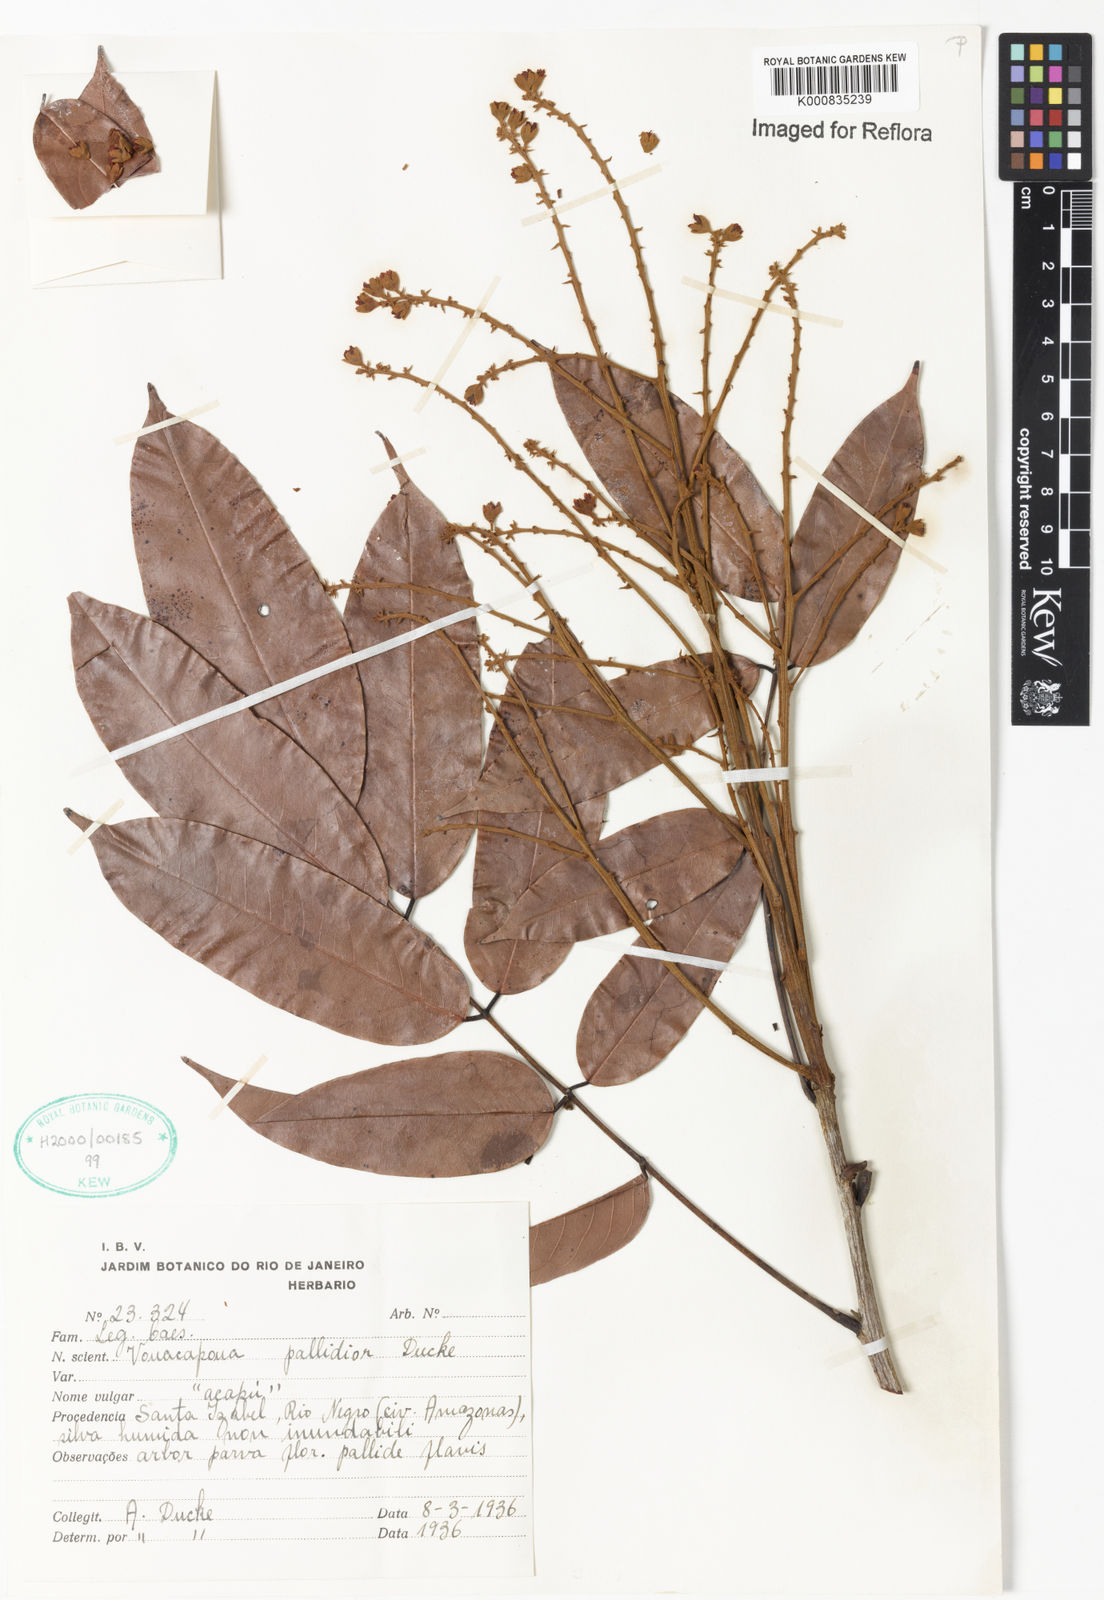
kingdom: Plantae
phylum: Tracheophyta
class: Magnoliopsida
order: Fabales
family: Fabaceae
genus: Vouacapoua
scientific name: Vouacapoua pallidior
